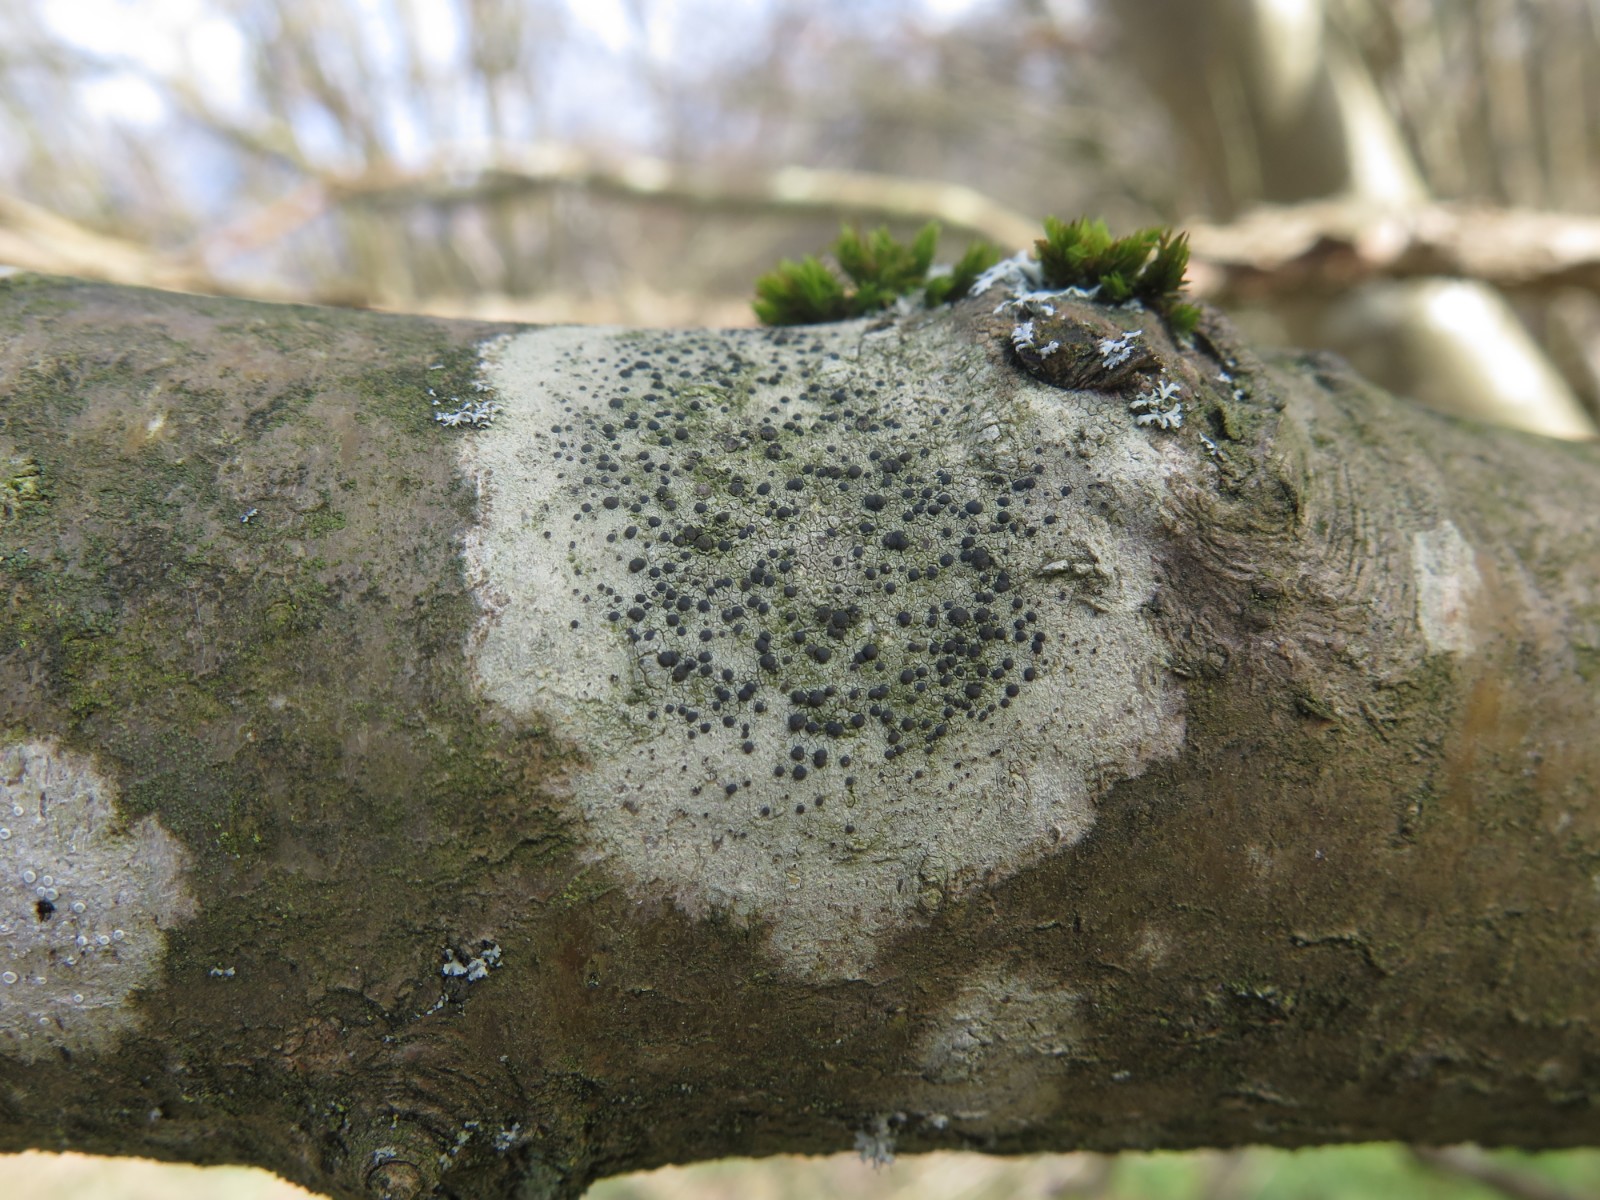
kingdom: Fungi
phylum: Ascomycota
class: Lecanoromycetes
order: Lecanorales
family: Lecanoraceae
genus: Lecidella
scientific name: Lecidella elaeochroma
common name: grågrøn skivelav
